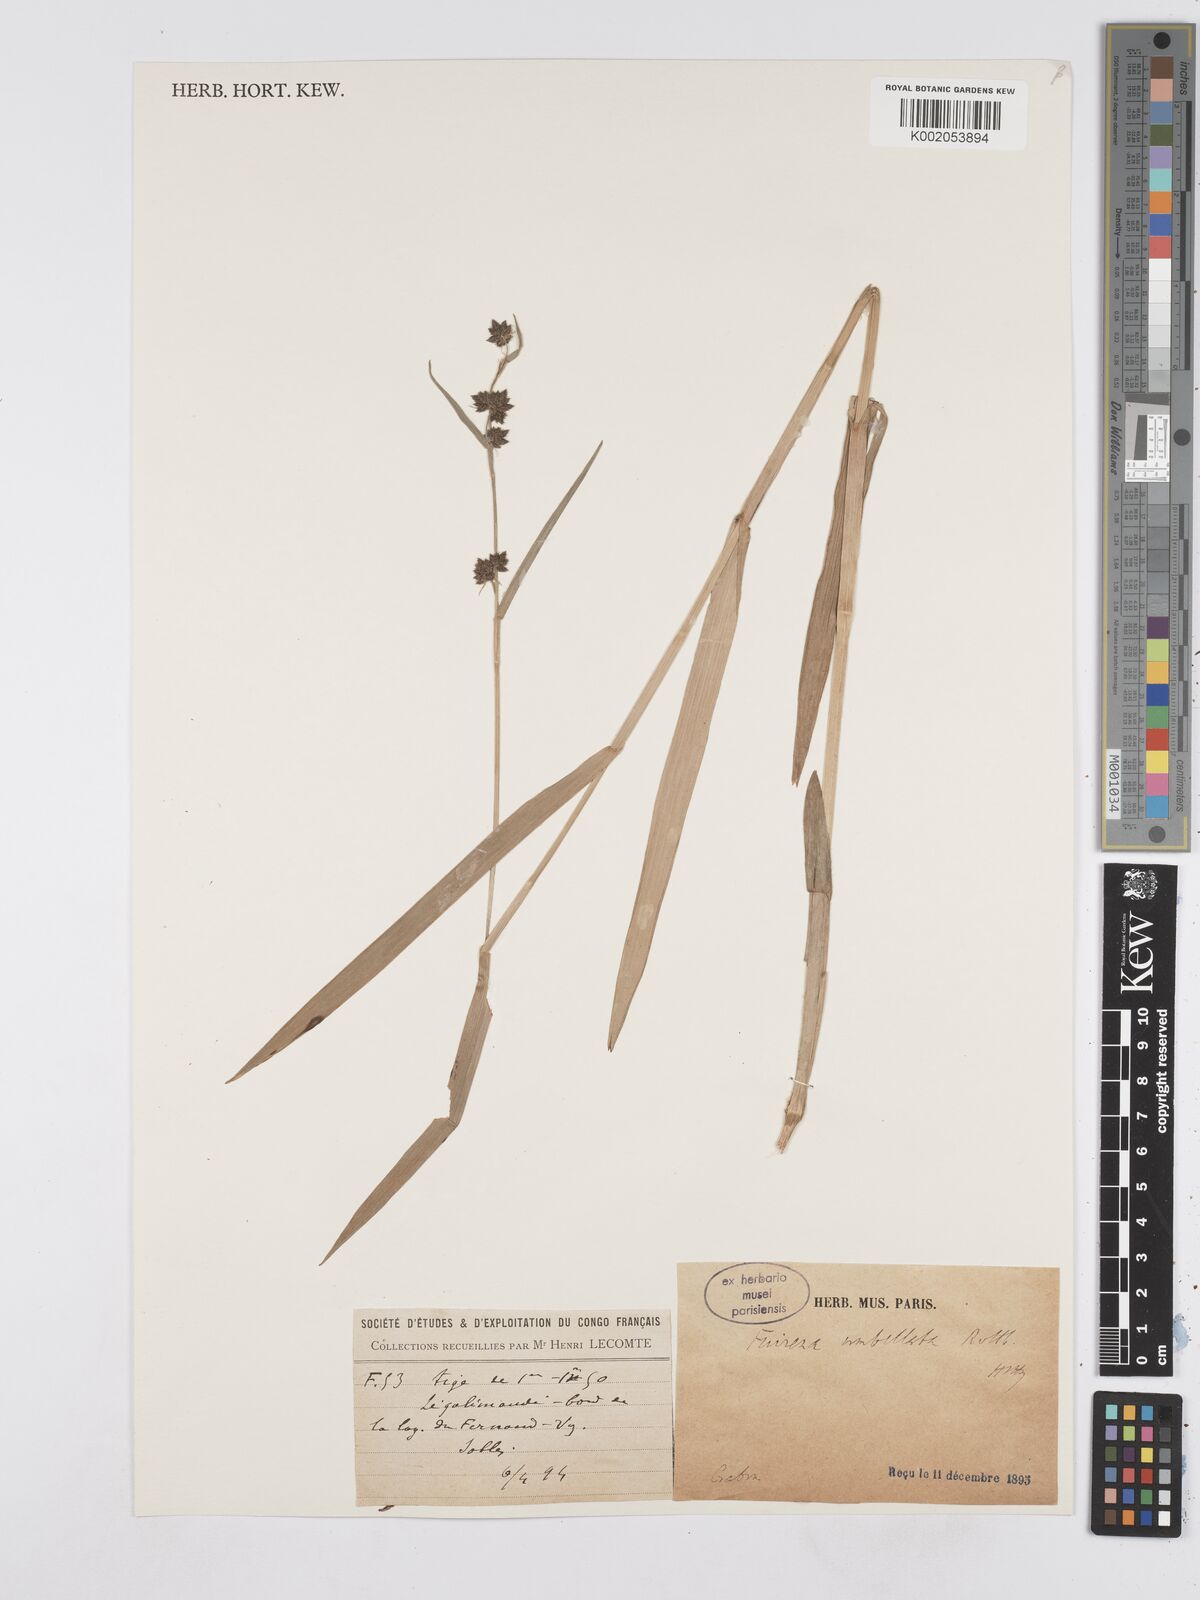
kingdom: Plantae
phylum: Tracheophyta
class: Liliopsida
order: Poales
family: Cyperaceae
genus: Fuirena
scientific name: Fuirena umbellata
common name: Yefen
